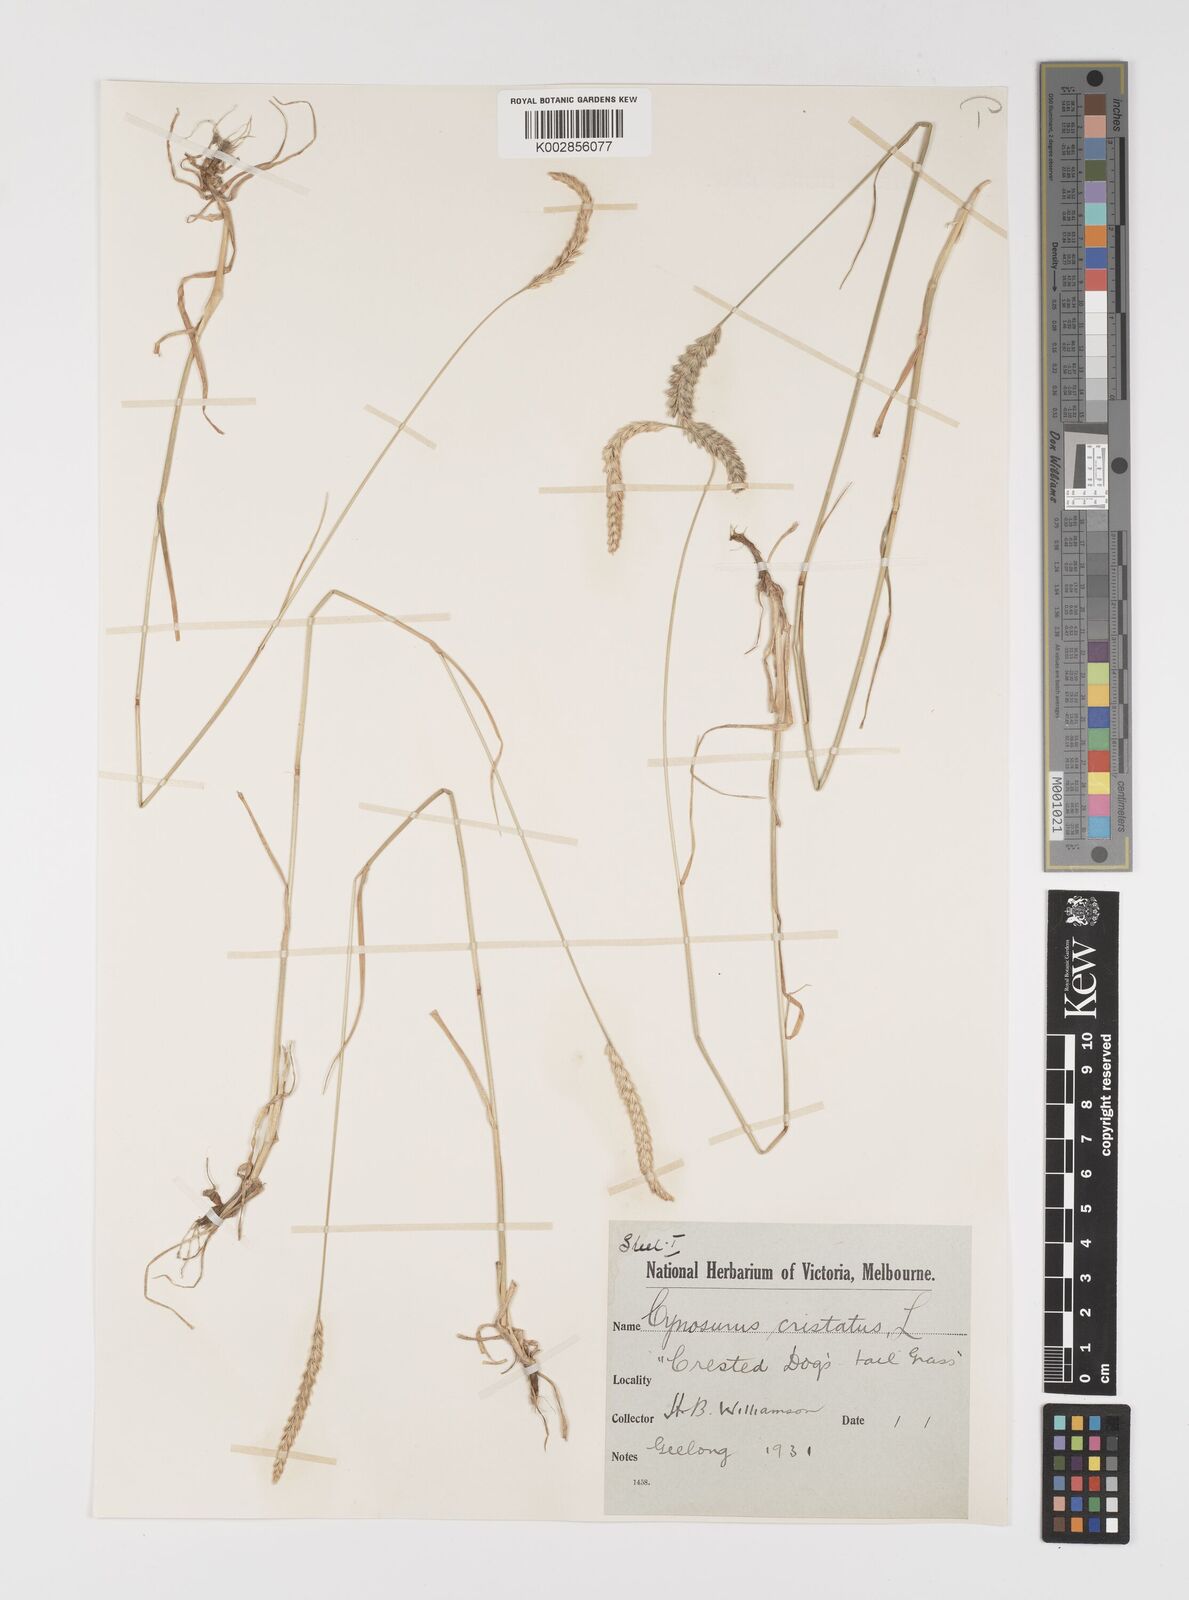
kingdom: Plantae
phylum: Tracheophyta
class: Liliopsida
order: Poales
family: Poaceae
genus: Cynosurus
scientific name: Cynosurus cristatus
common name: Crested dog's-tail
